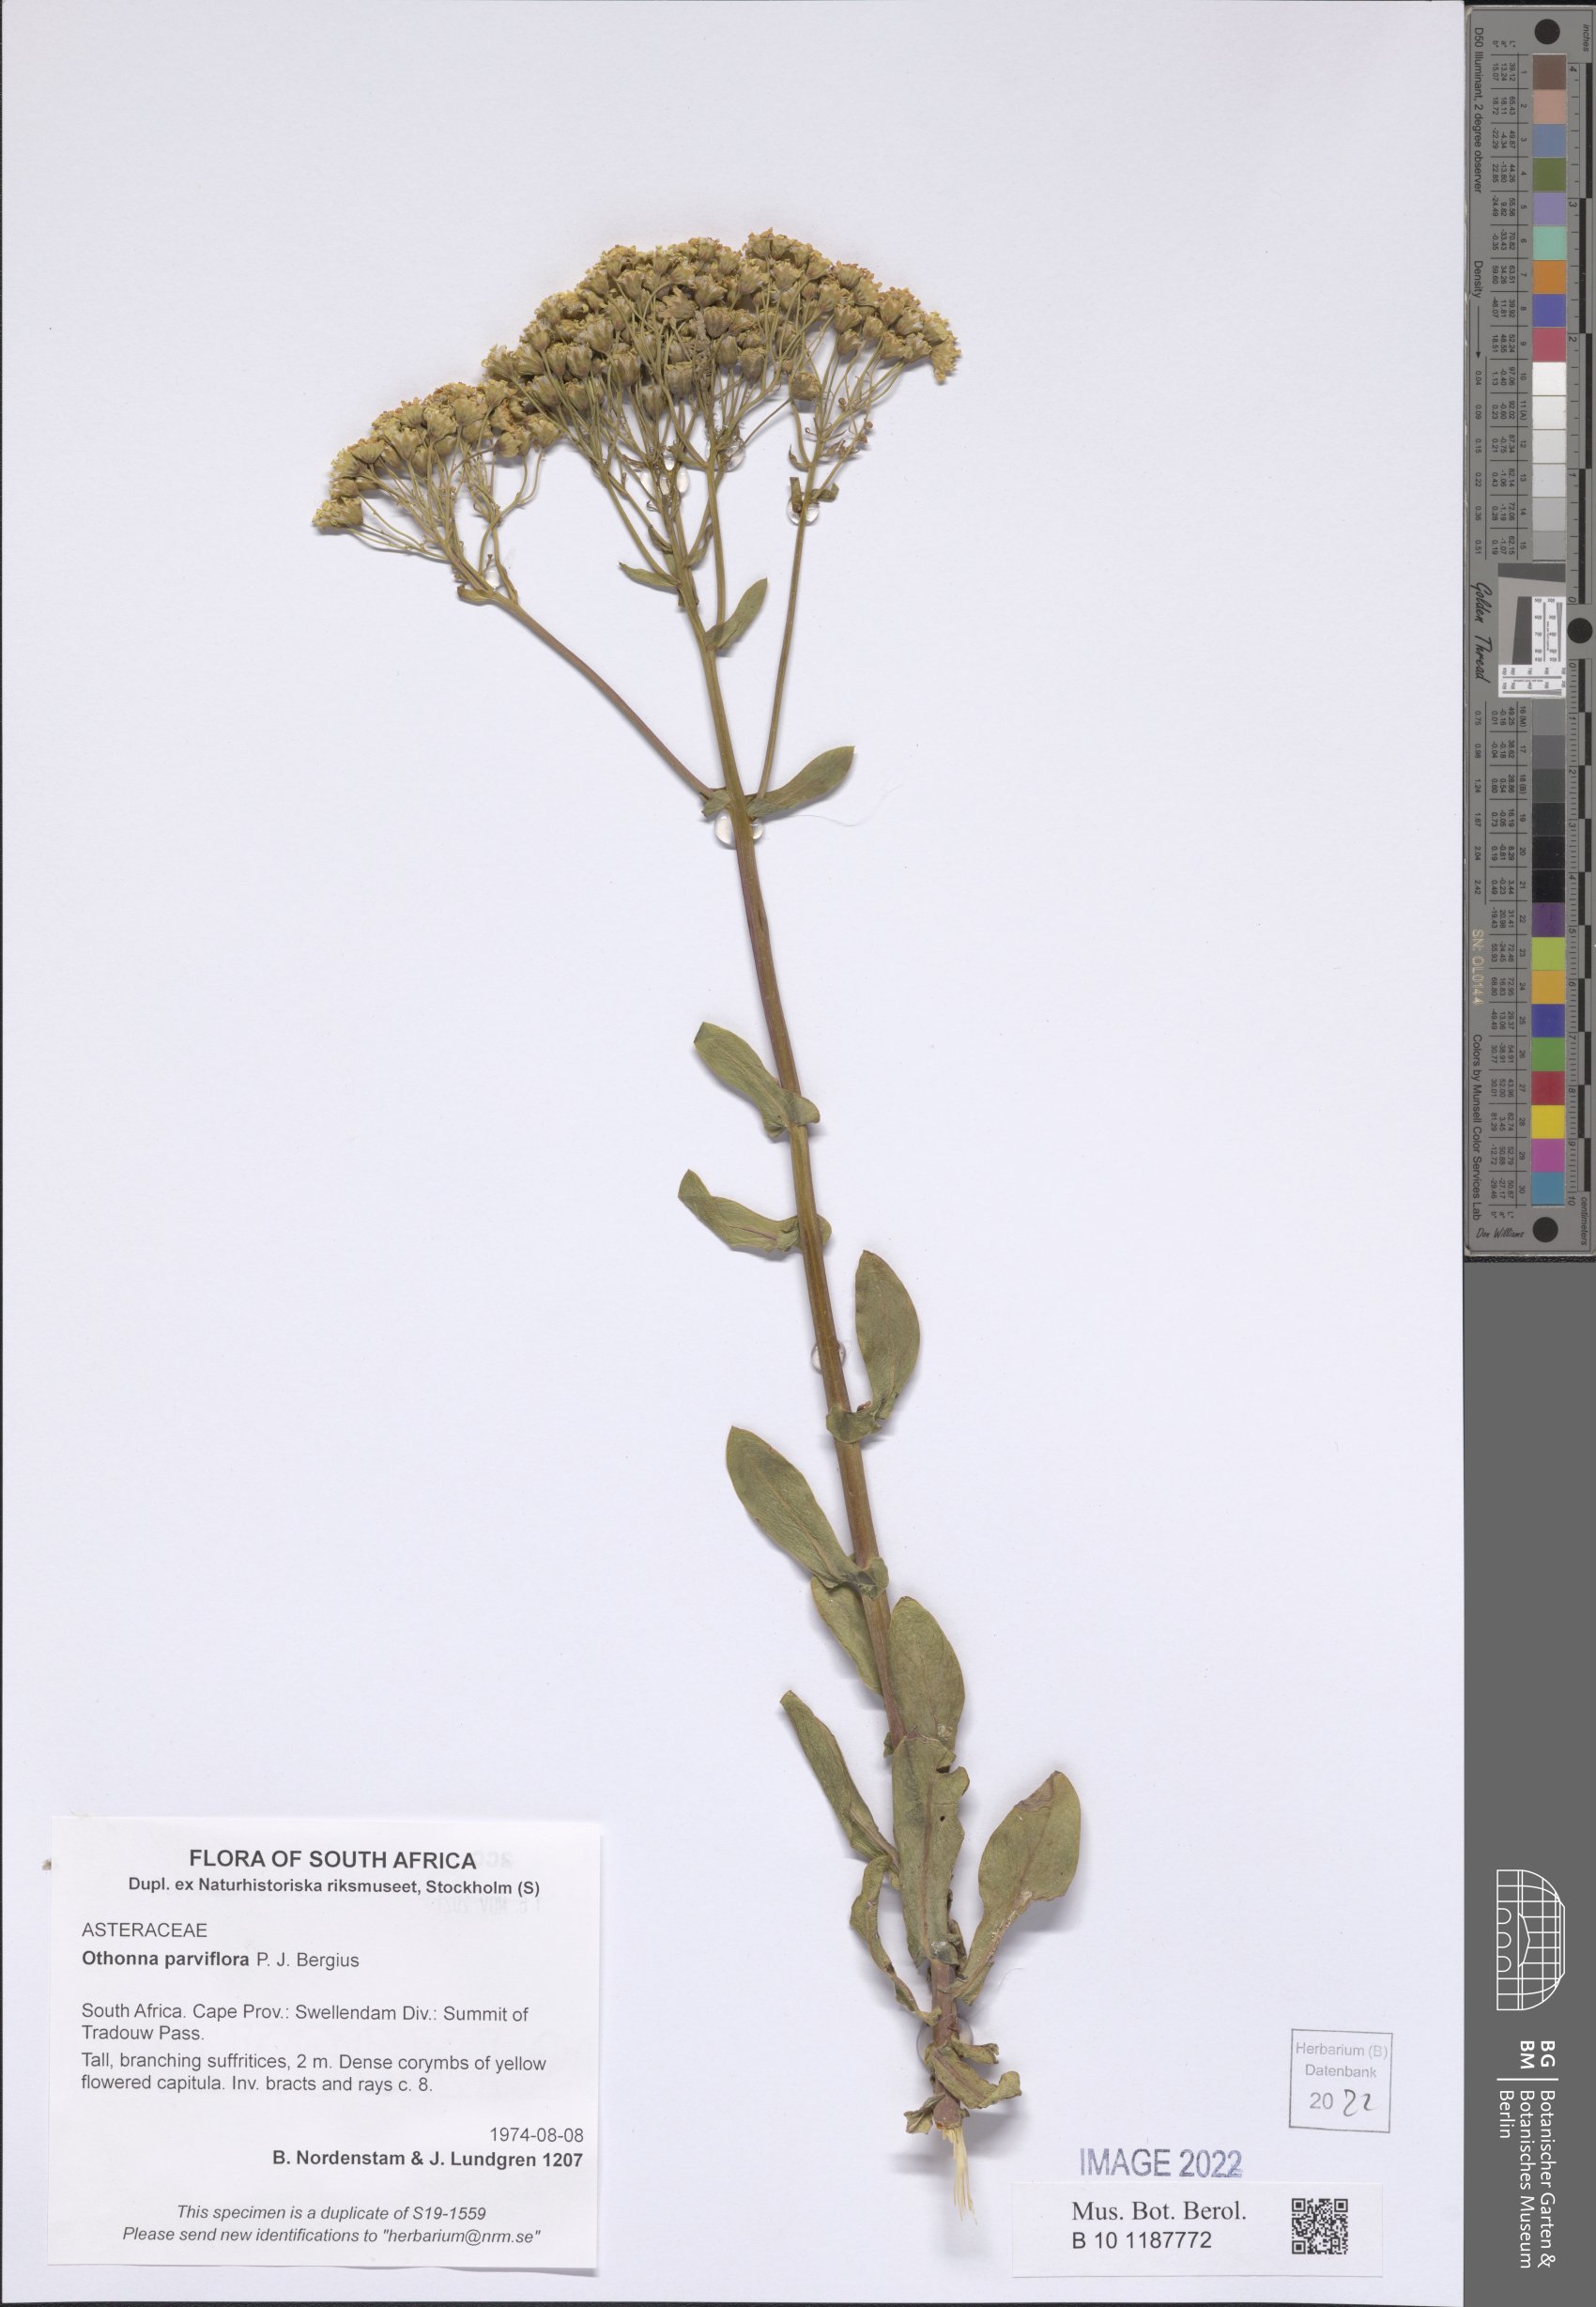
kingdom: Plantae
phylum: Tracheophyta
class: Magnoliopsida
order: Asterales
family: Asteraceae
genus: Othonna
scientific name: Othonna parviflora
